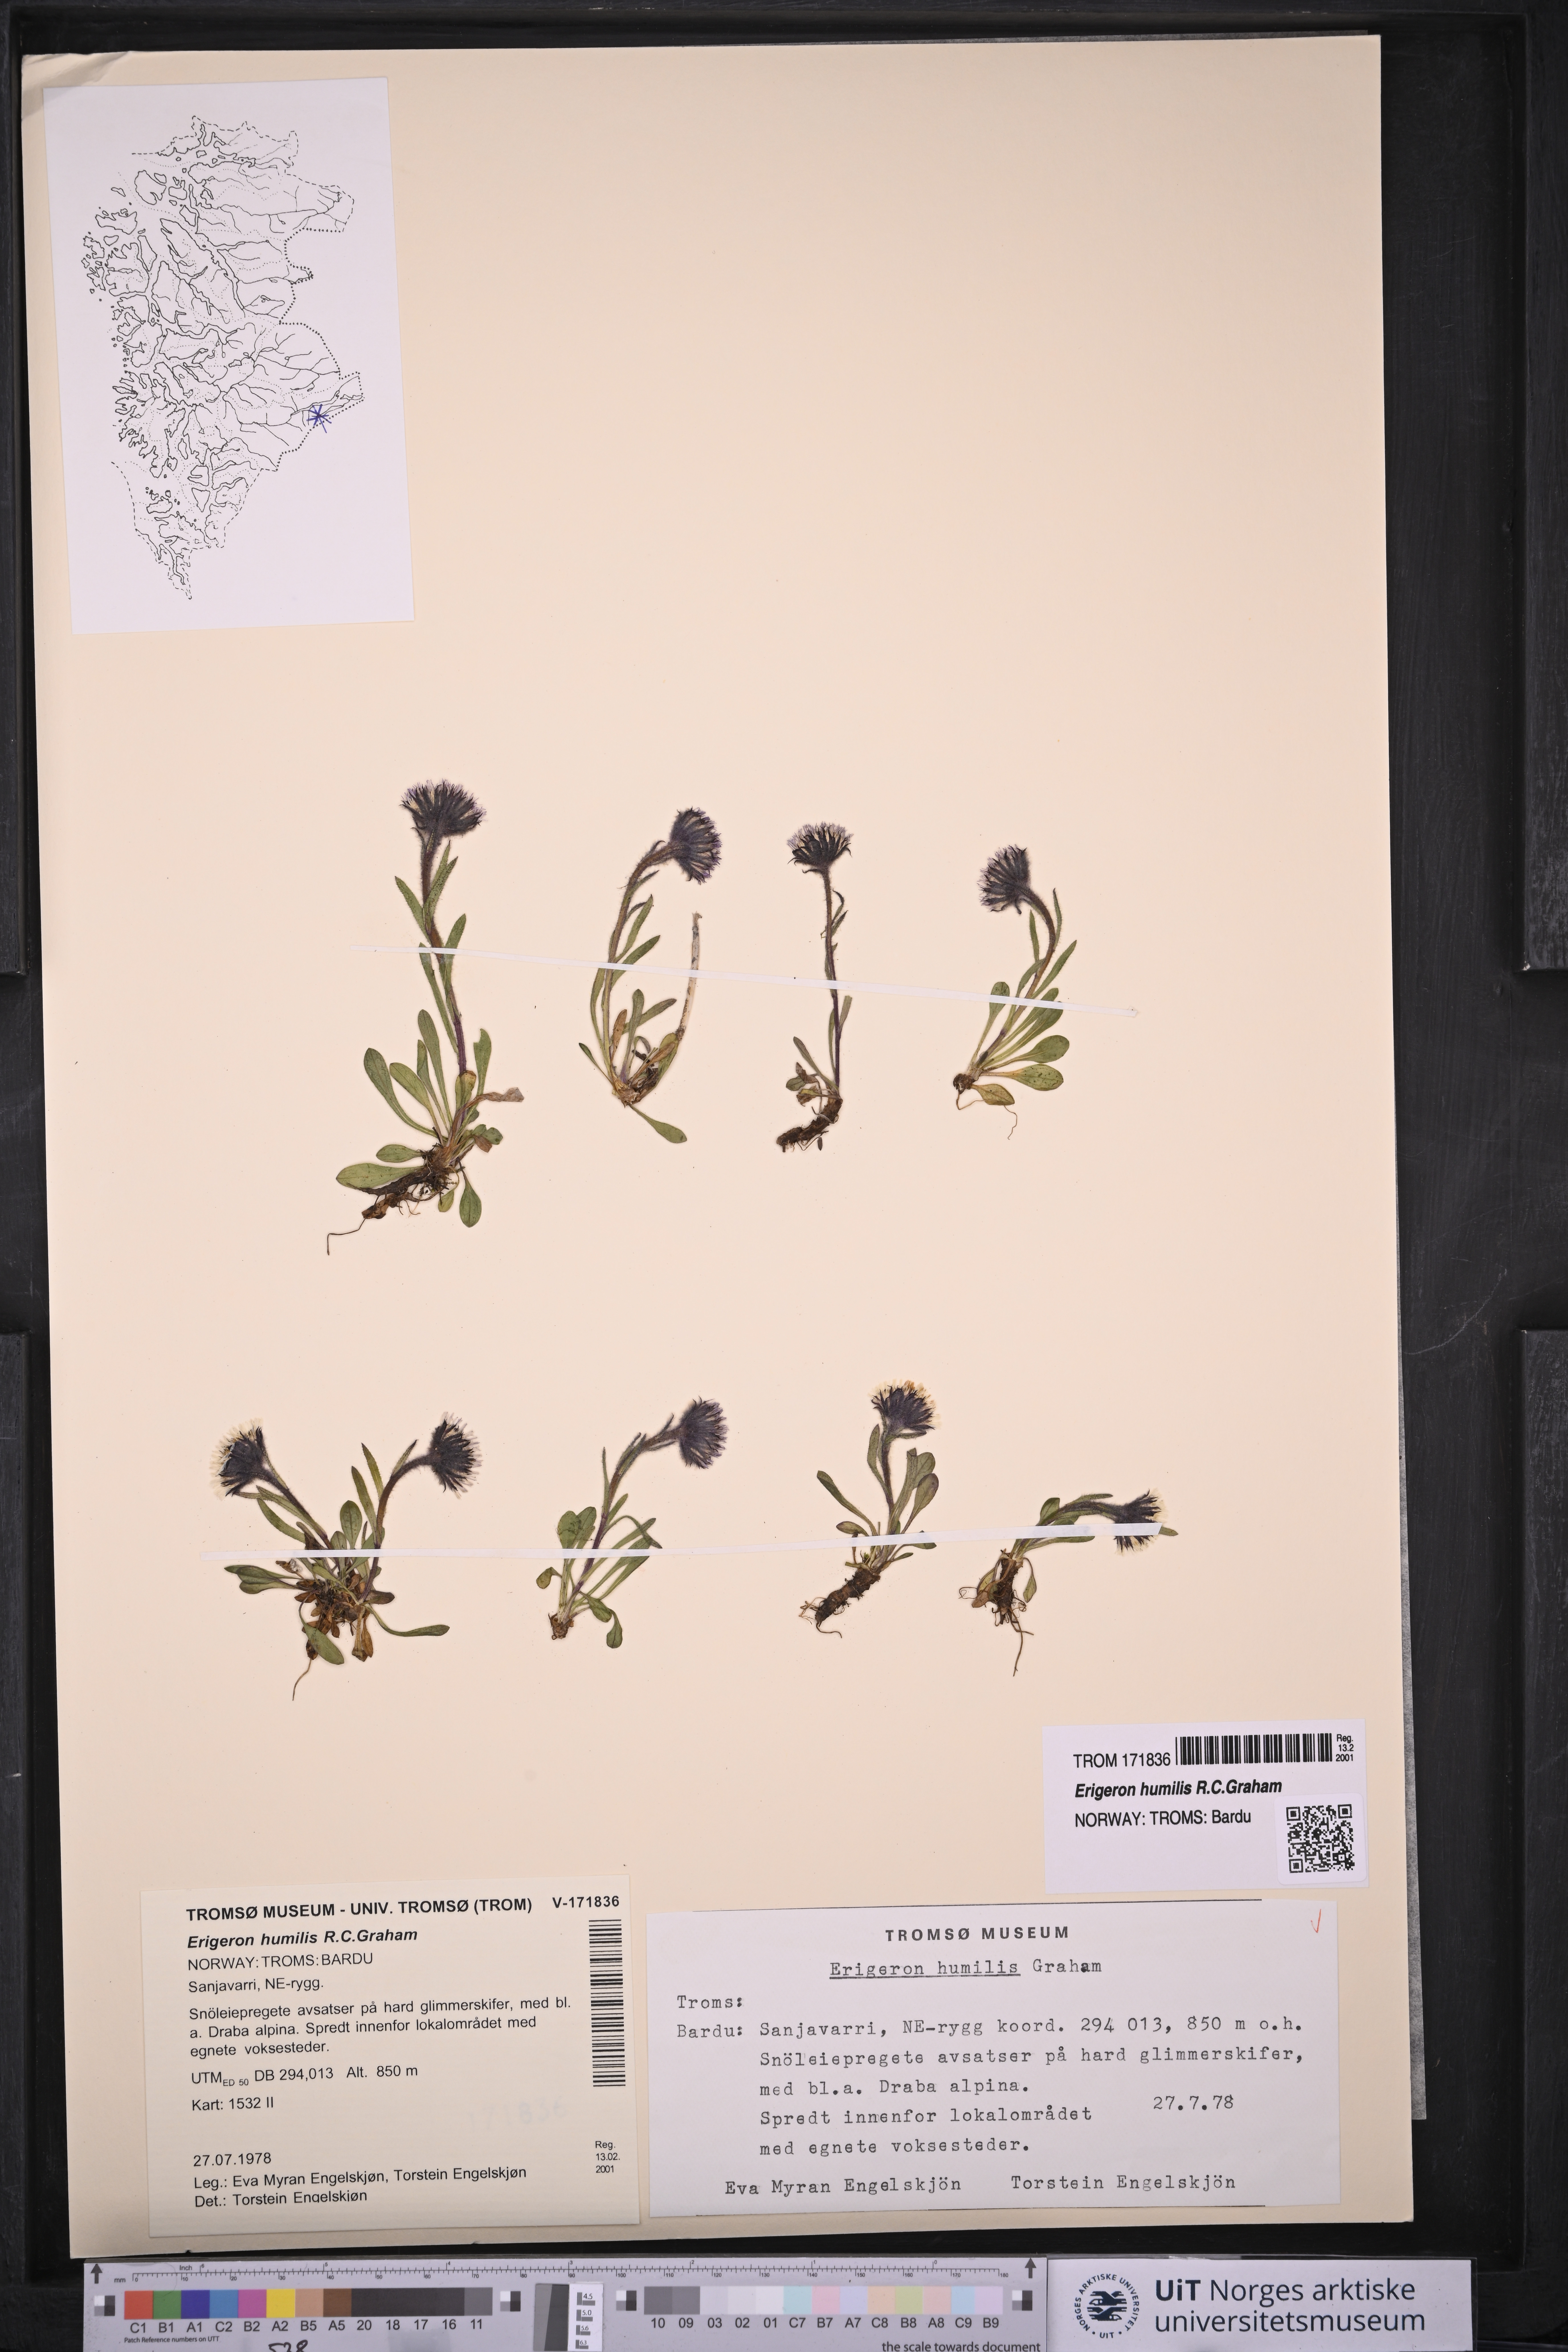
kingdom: Plantae
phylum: Tracheophyta
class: Magnoliopsida
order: Asterales
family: Asteraceae
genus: Erigeron
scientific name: Erigeron humilis
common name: Arctic-alpine fleabane
